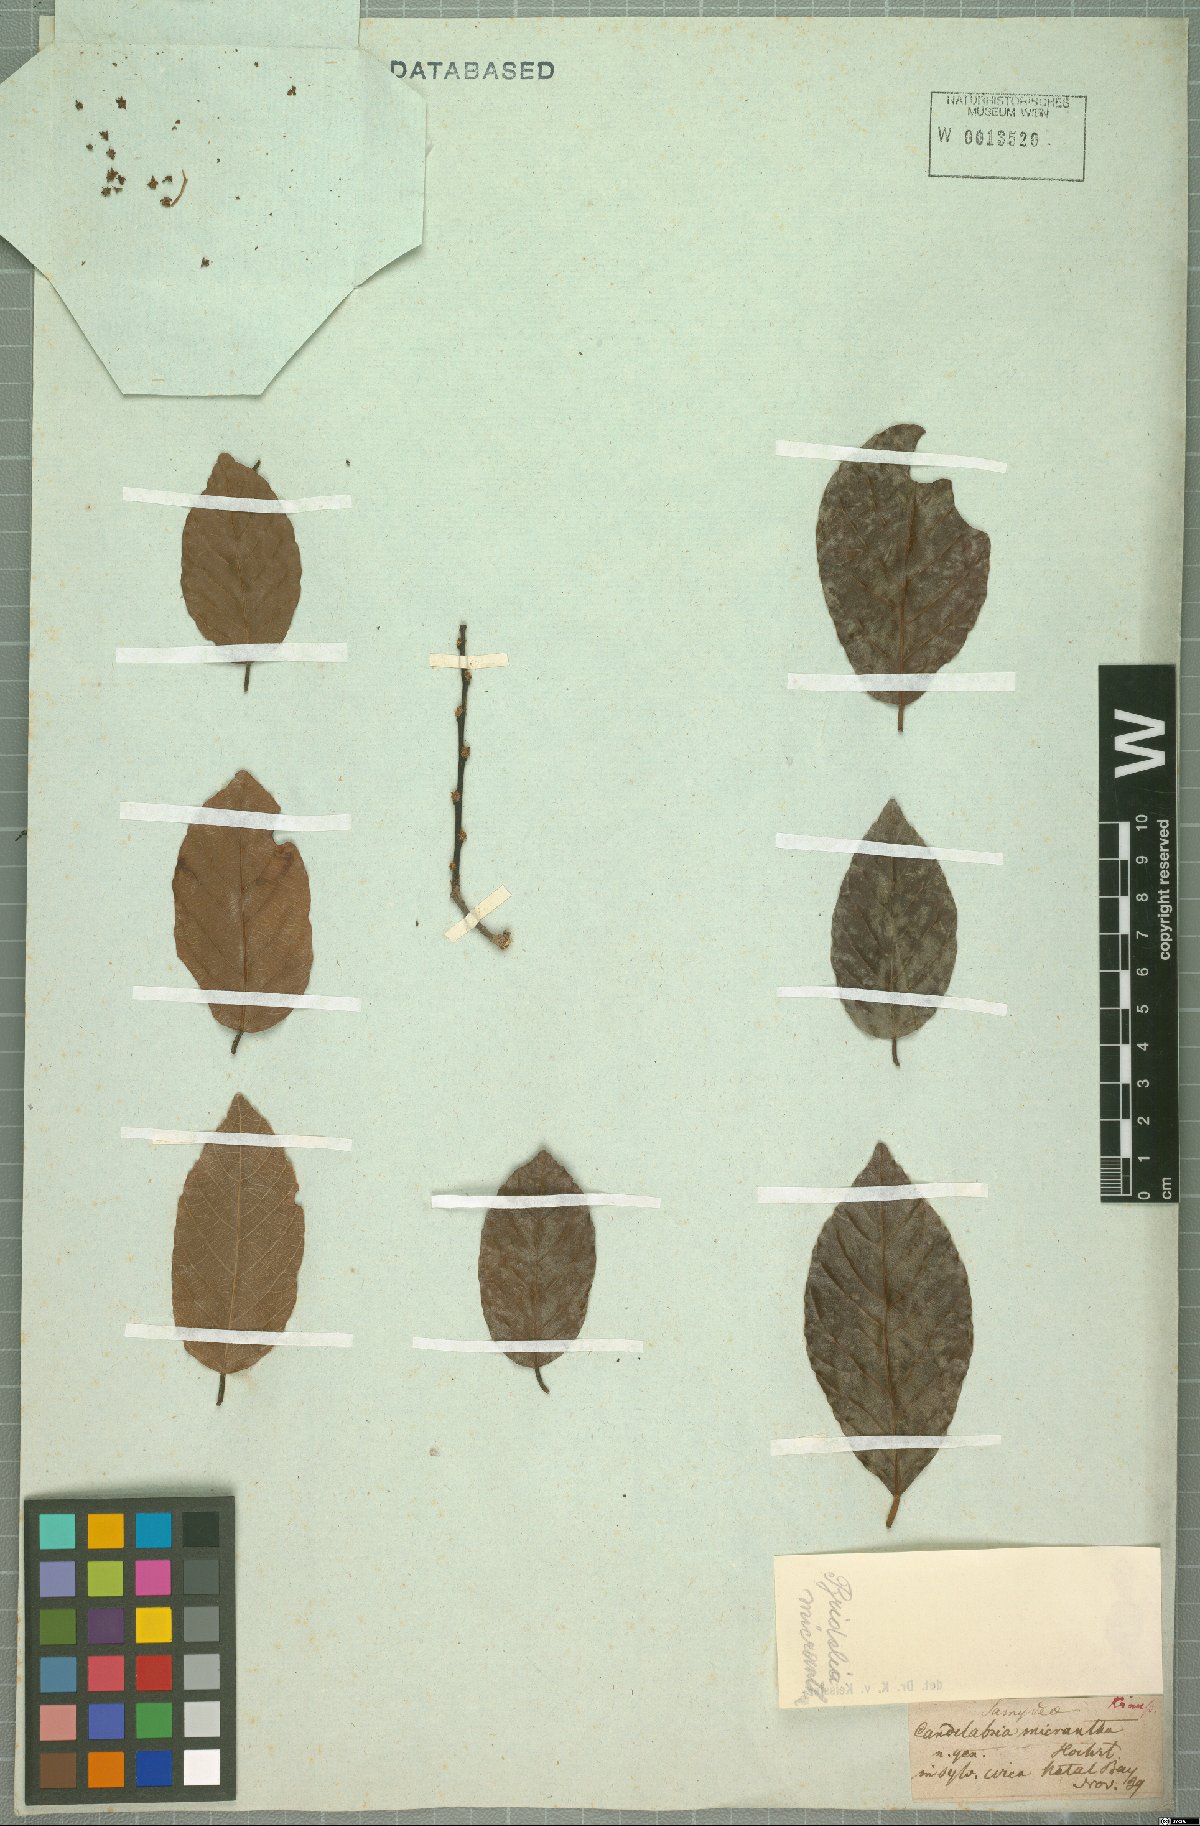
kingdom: Plantae
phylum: Tracheophyta
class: Magnoliopsida
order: Malpighiales
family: Phyllanthaceae
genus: Bridelia
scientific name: Bridelia micrantha
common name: Bridelia
